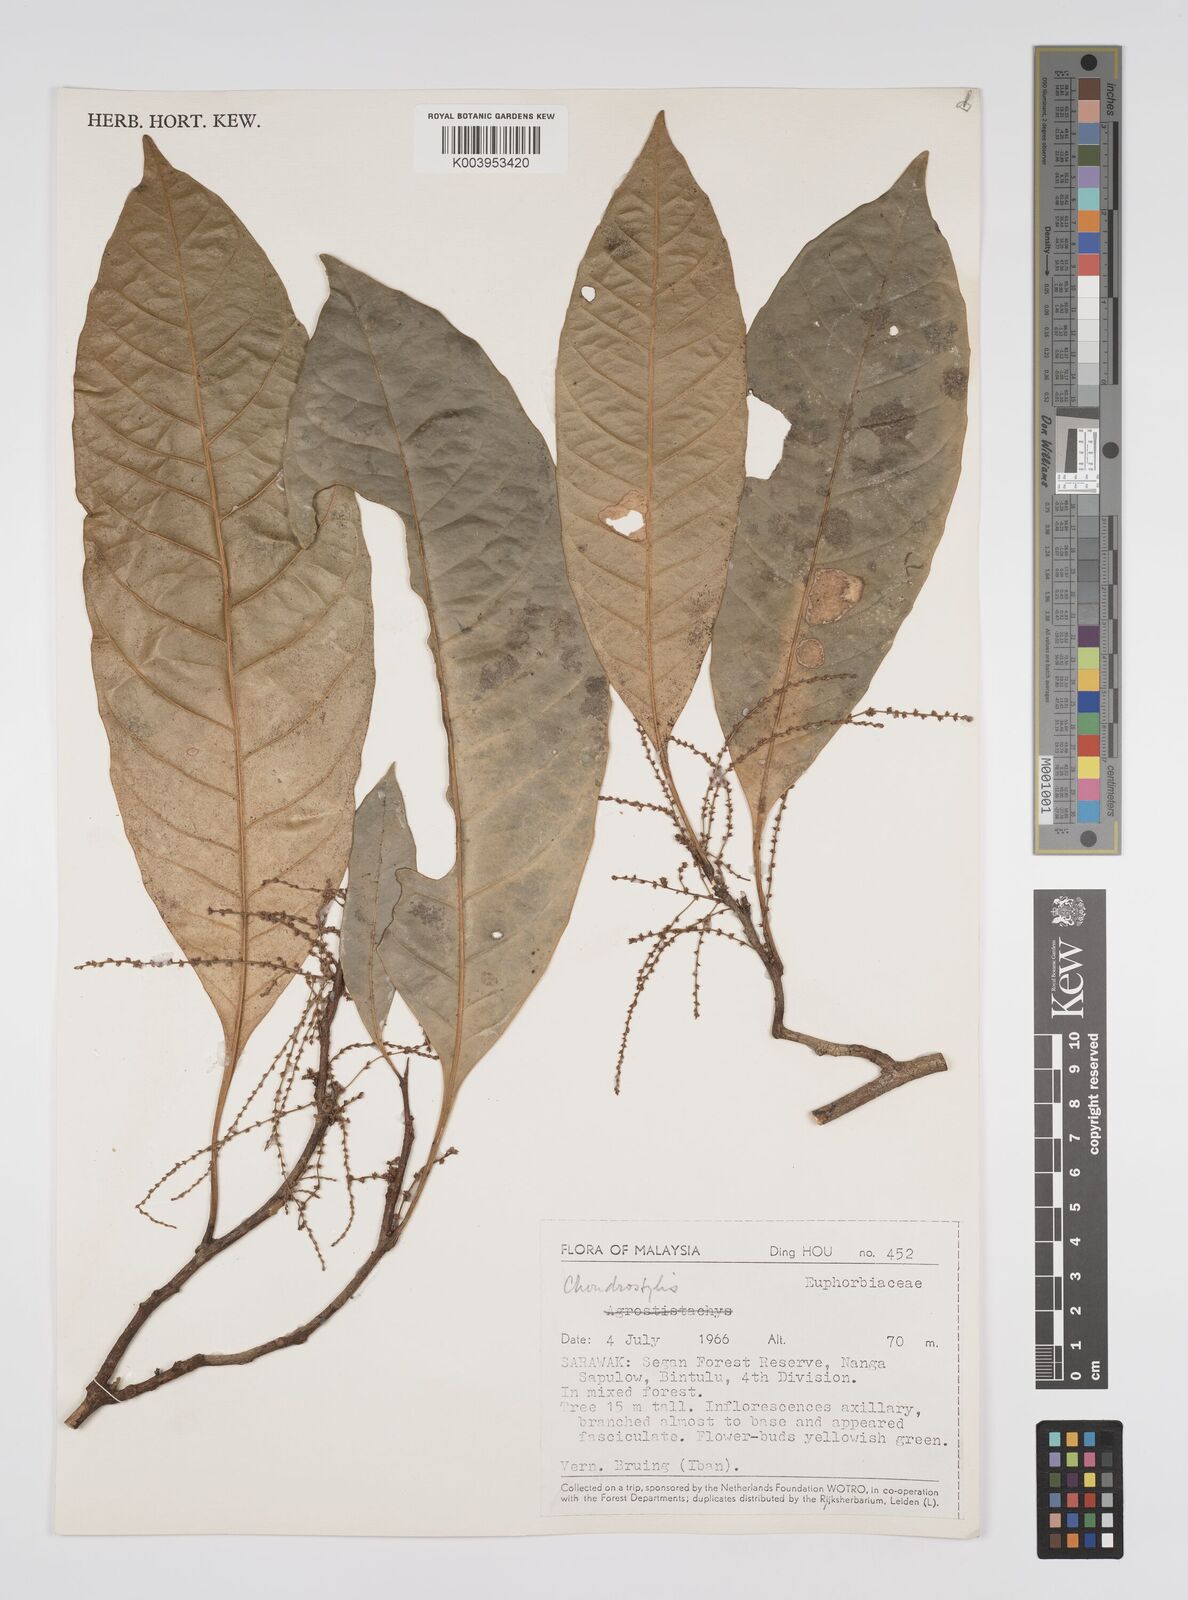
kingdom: Plantae
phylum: Tracheophyta
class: Magnoliopsida
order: Malpighiales
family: Euphorbiaceae
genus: Chondrostylis
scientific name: Chondrostylis kunstleri
